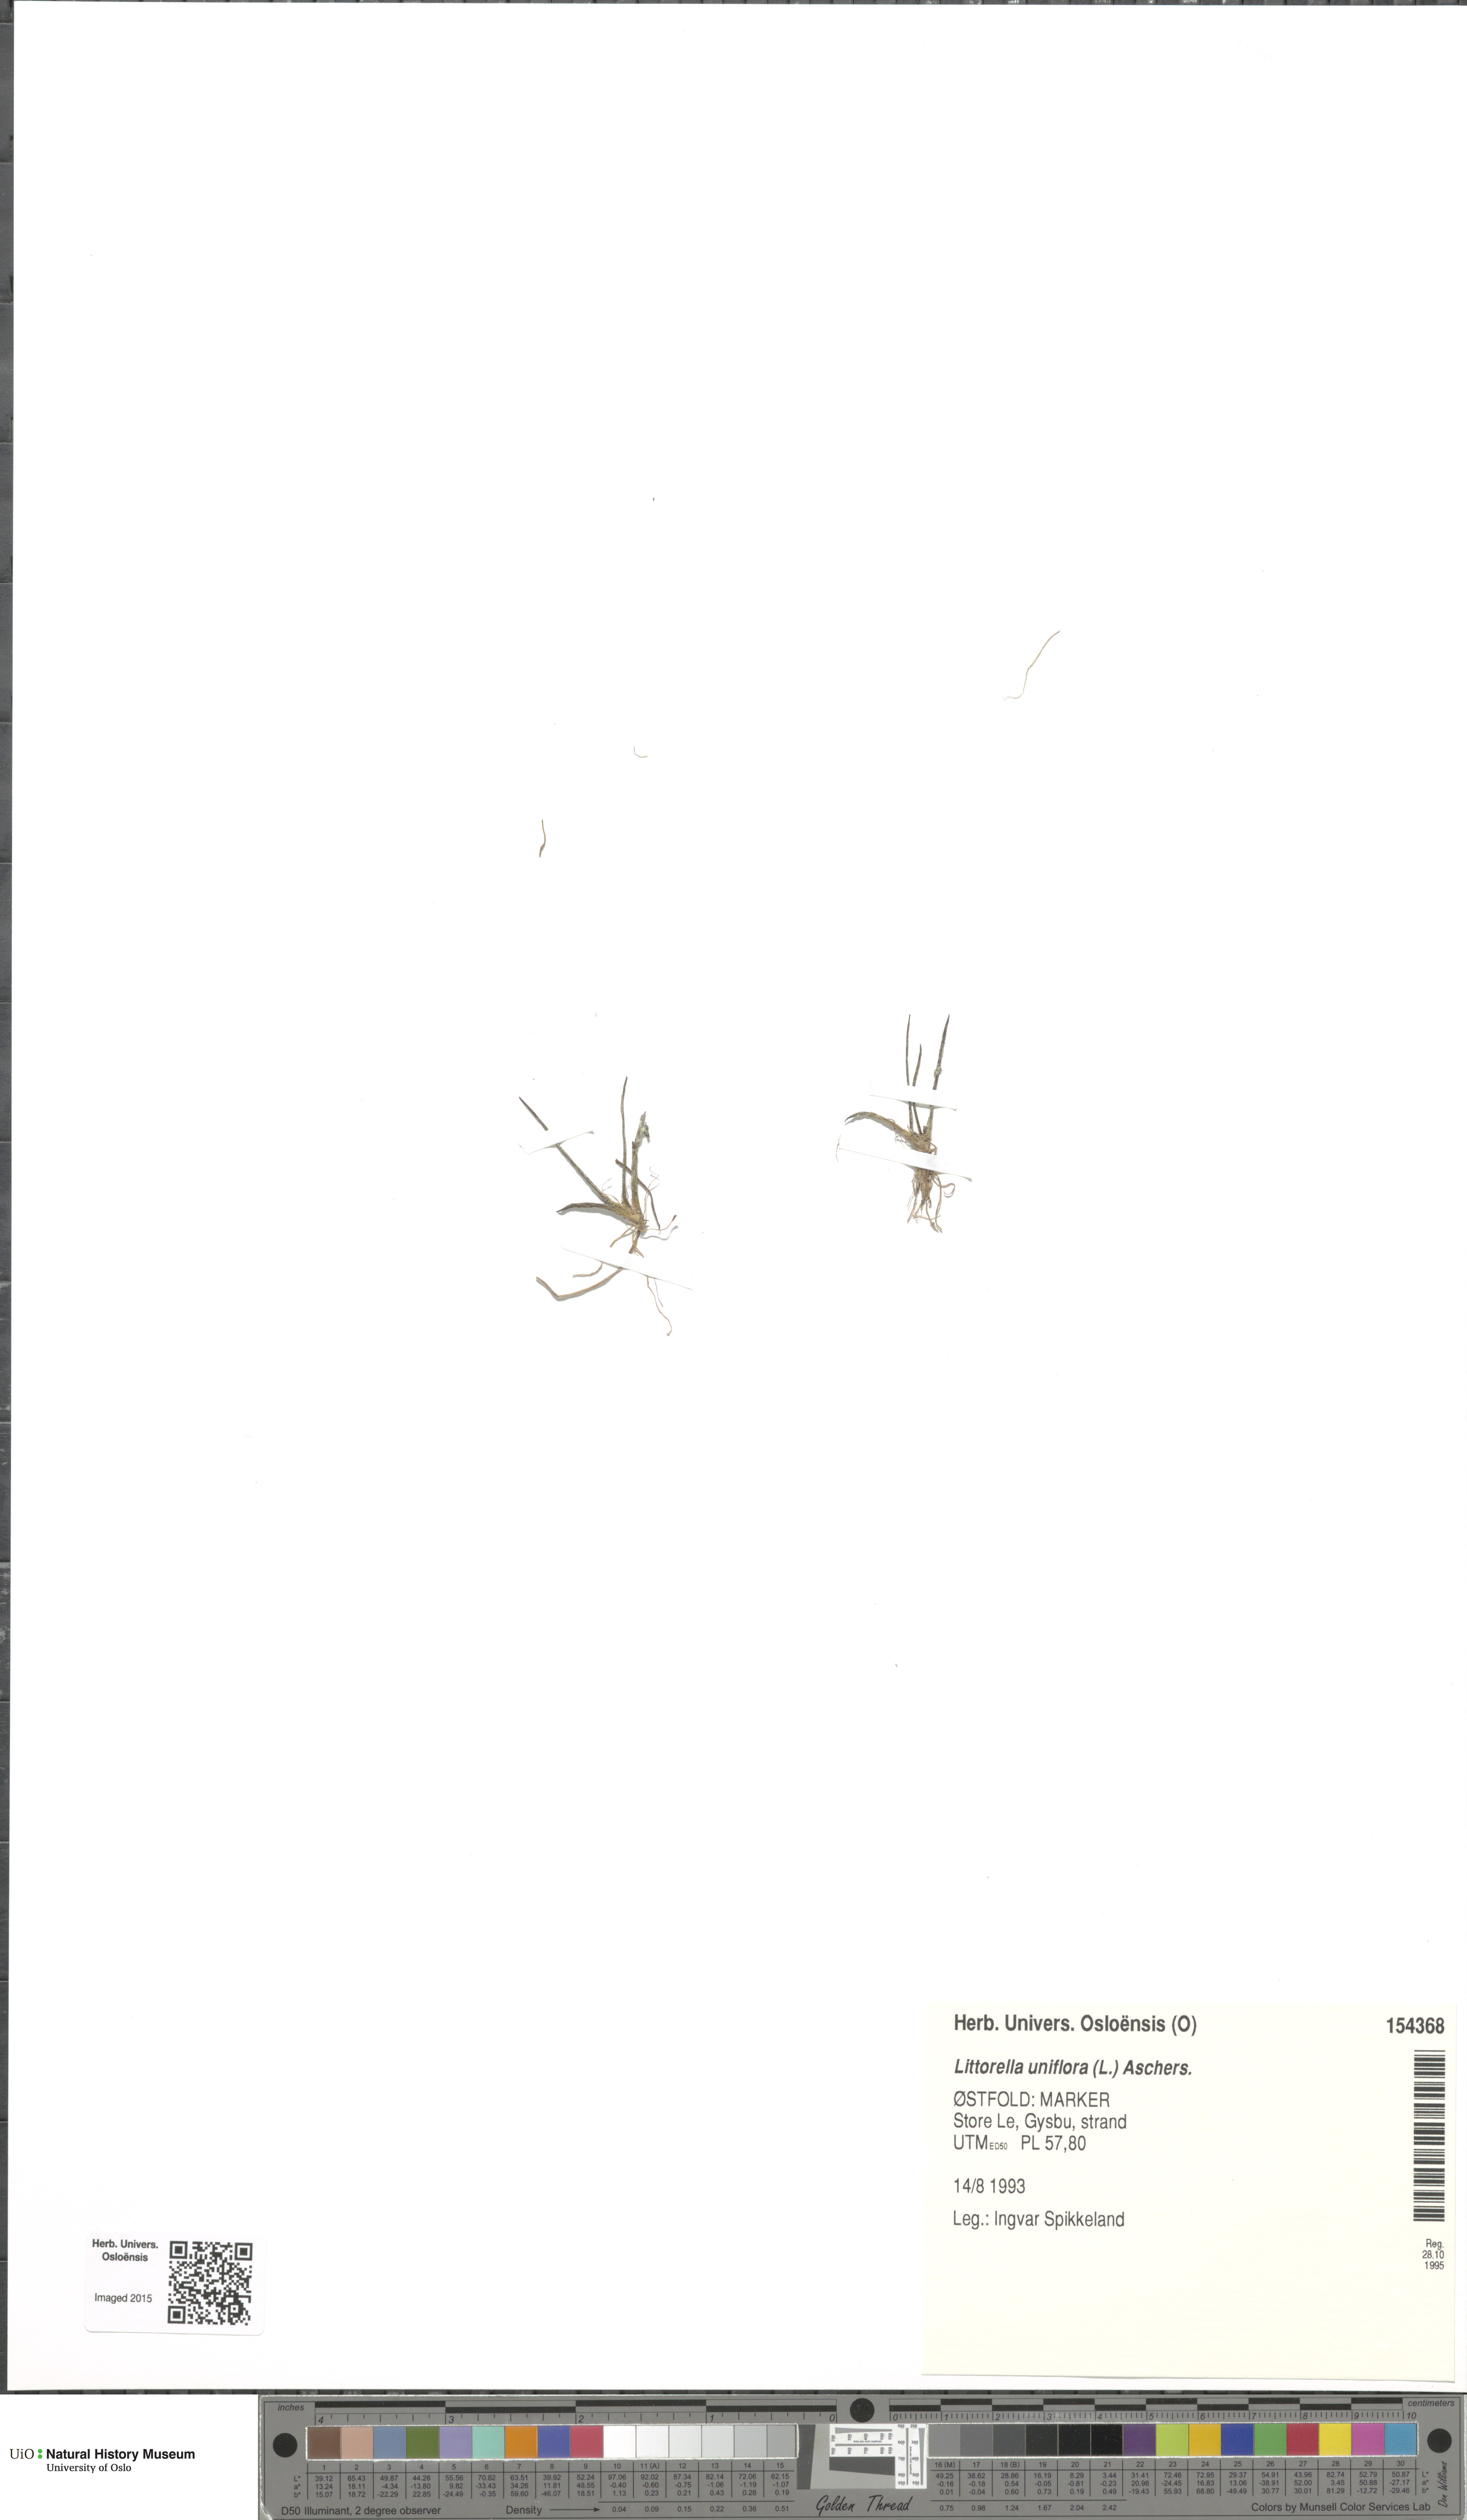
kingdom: Plantae
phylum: Tracheophyta
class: Magnoliopsida
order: Lamiales
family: Plantaginaceae
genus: Littorella
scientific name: Littorella uniflora
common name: Shoreweed
